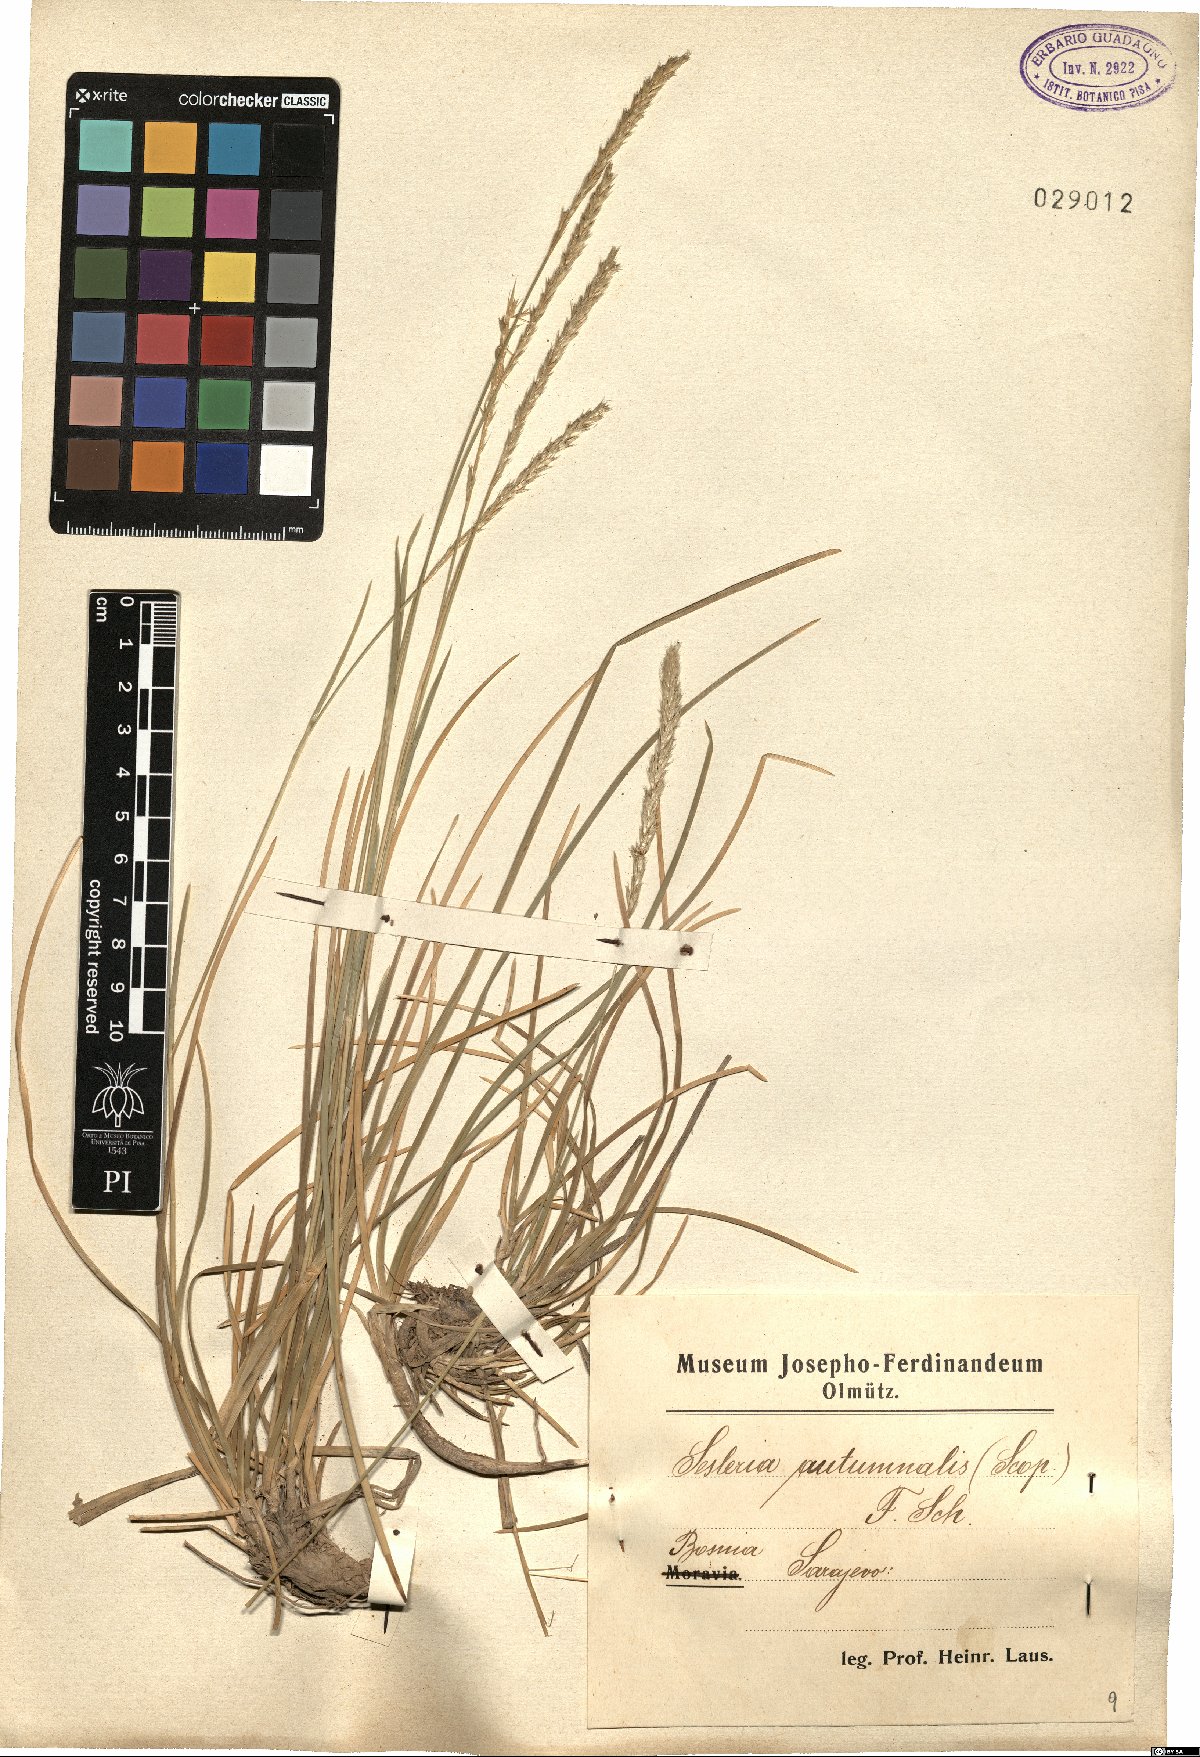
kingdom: Plantae
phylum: Tracheophyta
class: Liliopsida
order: Poales
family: Poaceae
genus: Sesleria
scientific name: Sesleria autumnalis
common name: Autumn moor grass
